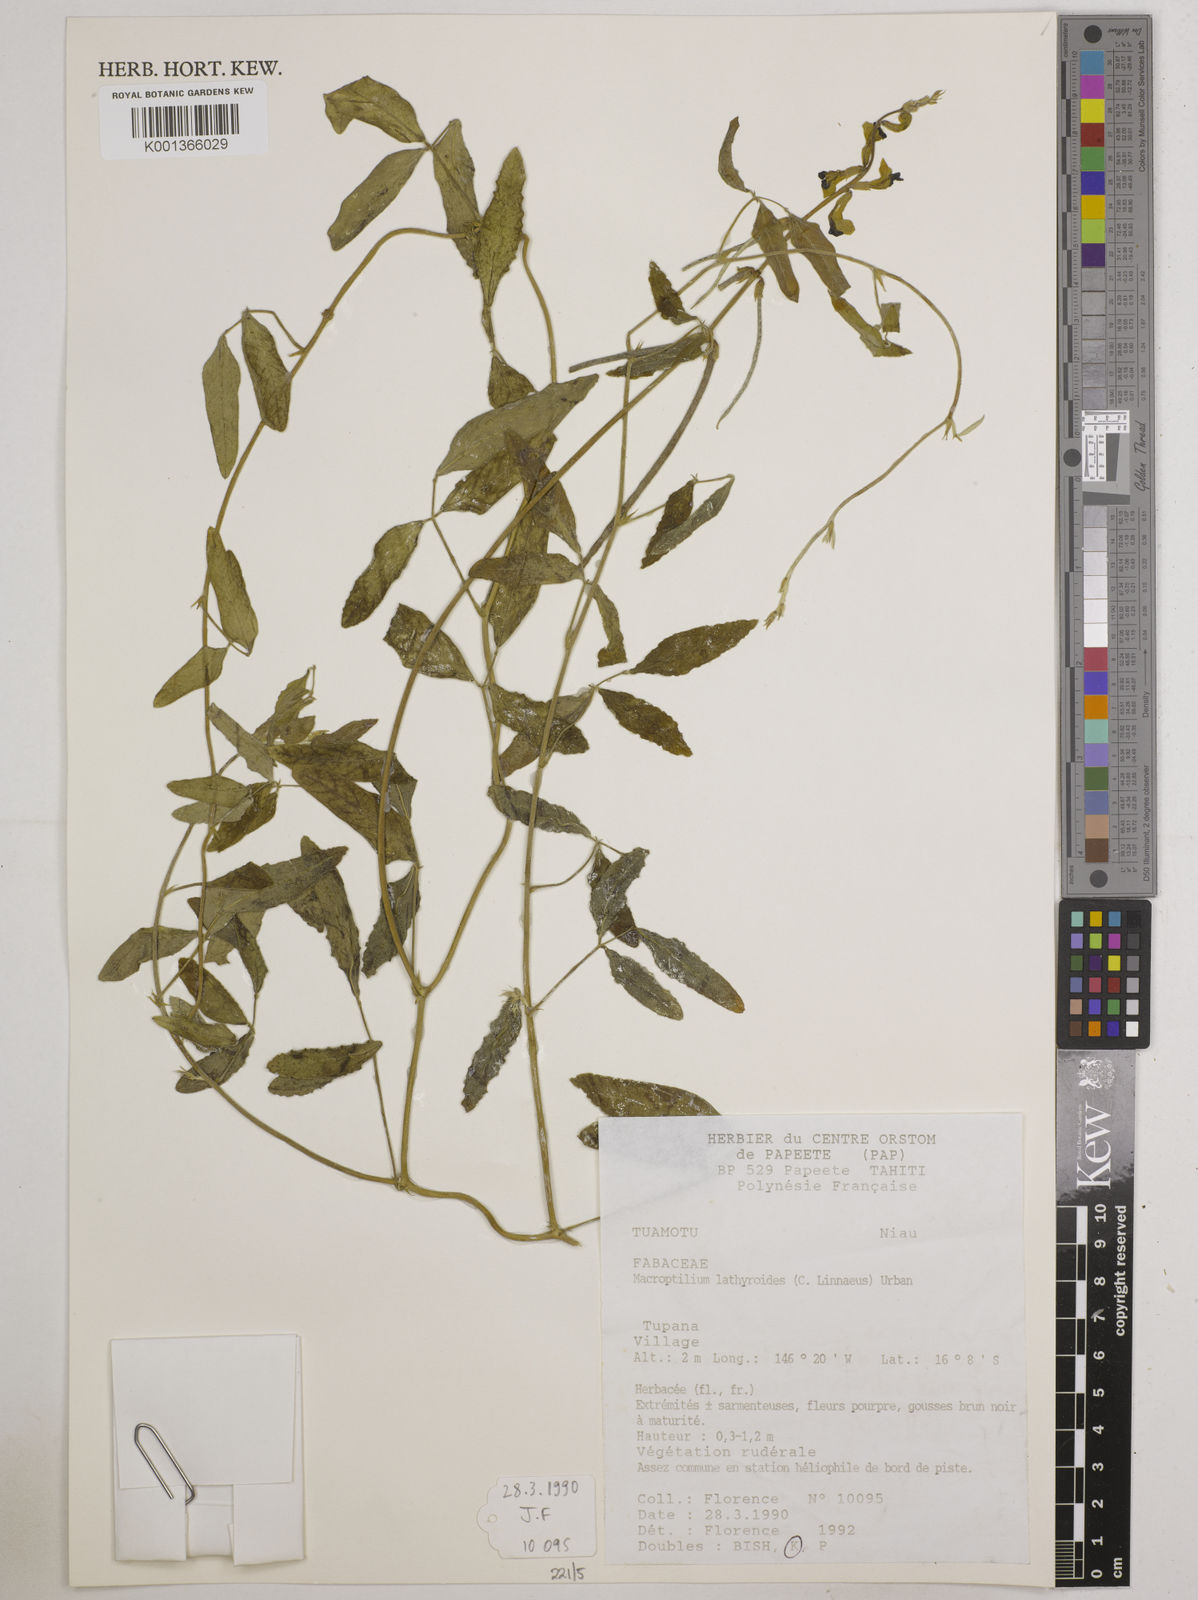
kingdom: Plantae
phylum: Tracheophyta
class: Magnoliopsida
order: Fabales
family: Fabaceae
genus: Macroptilium
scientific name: Macroptilium lathyroides
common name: Wild bushbean
